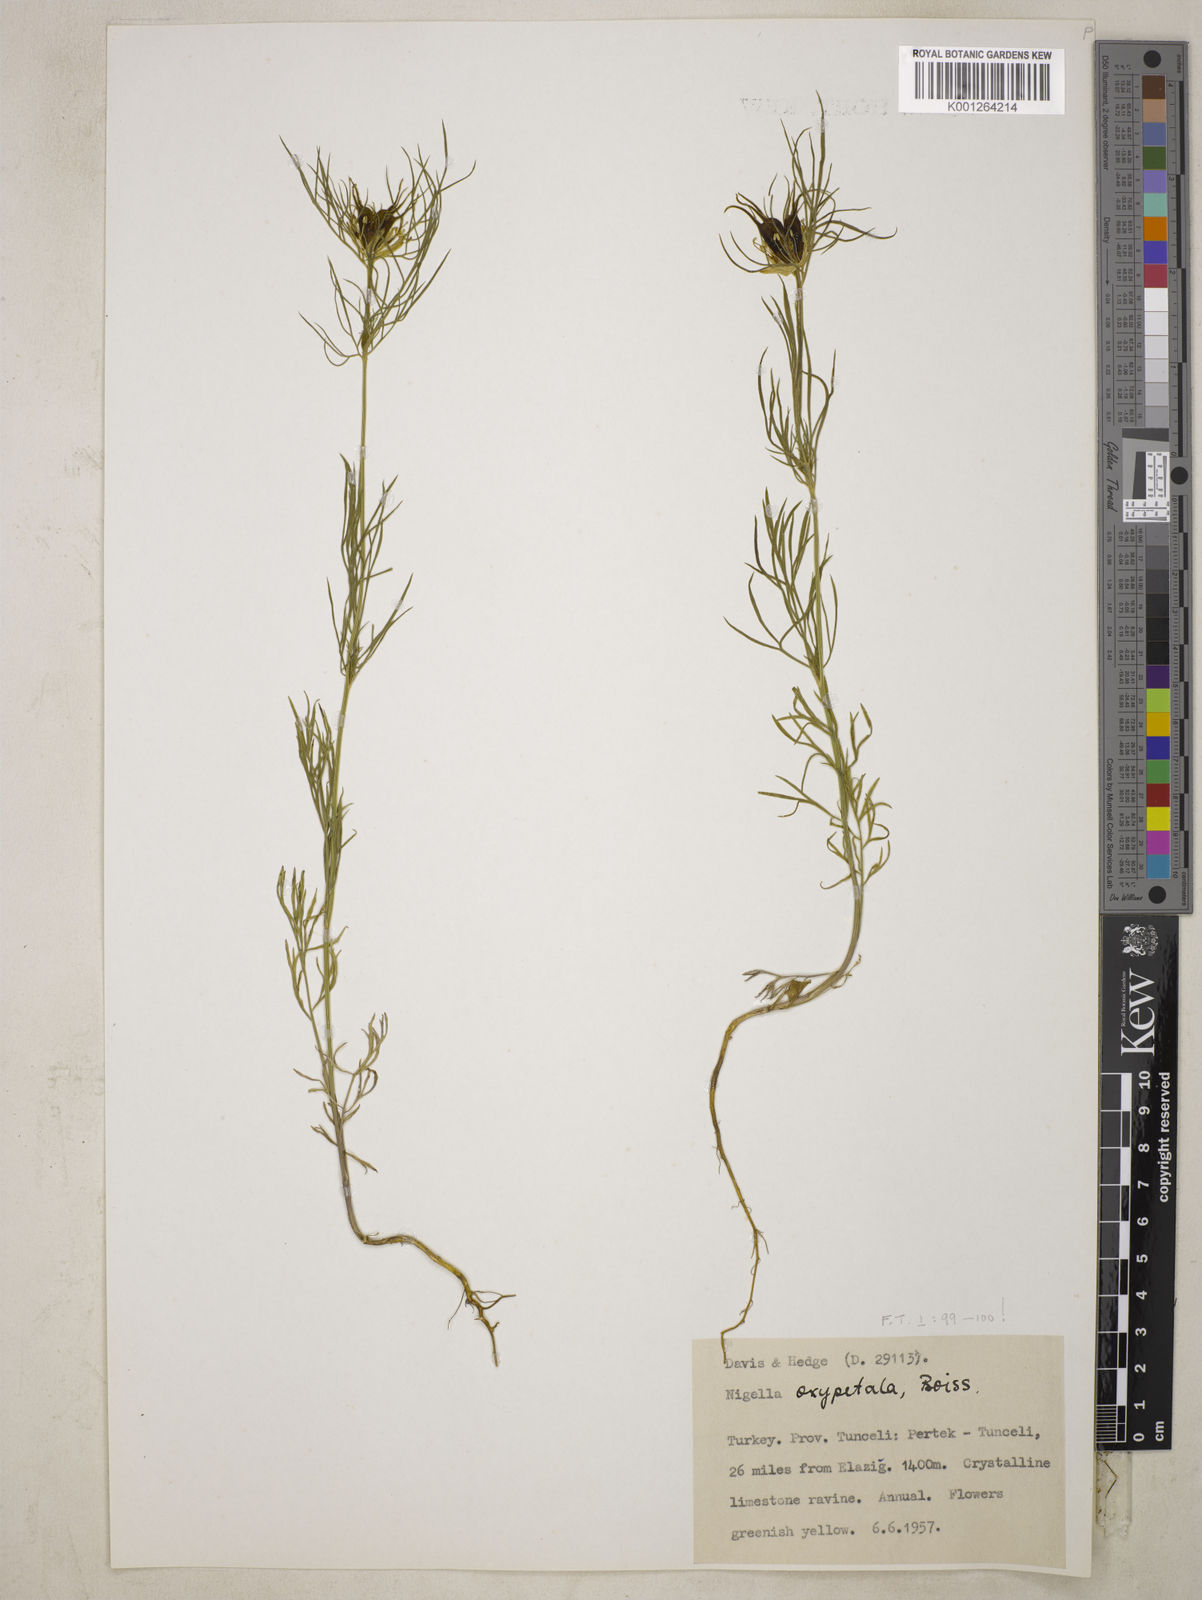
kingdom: Plantae
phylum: Tracheophyta
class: Magnoliopsida
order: Ranunculales
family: Ranunculaceae
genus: Nigella
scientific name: Nigella oxypetala
